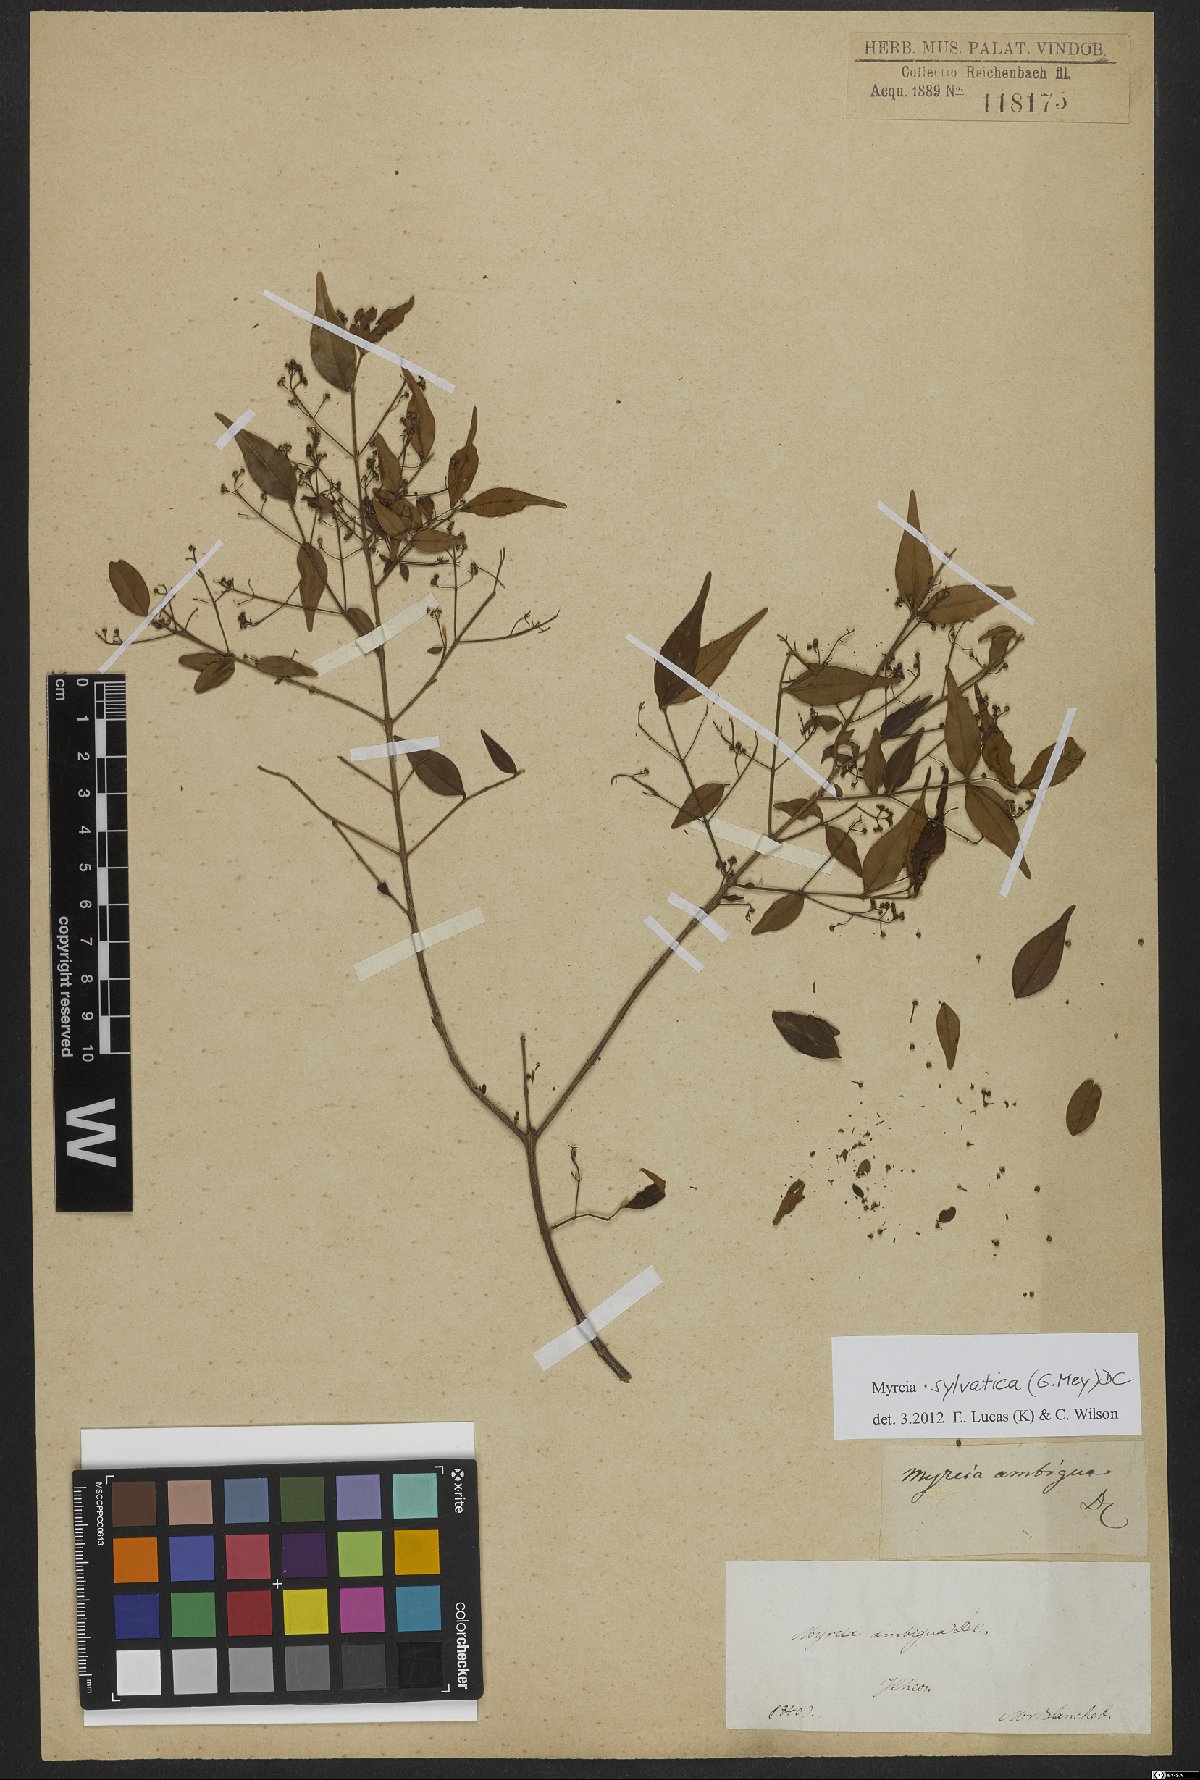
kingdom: Plantae
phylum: Tracheophyta
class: Magnoliopsida
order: Myrtales
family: Myrtaceae
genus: Myrcia
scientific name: Myrcia sylvatica
